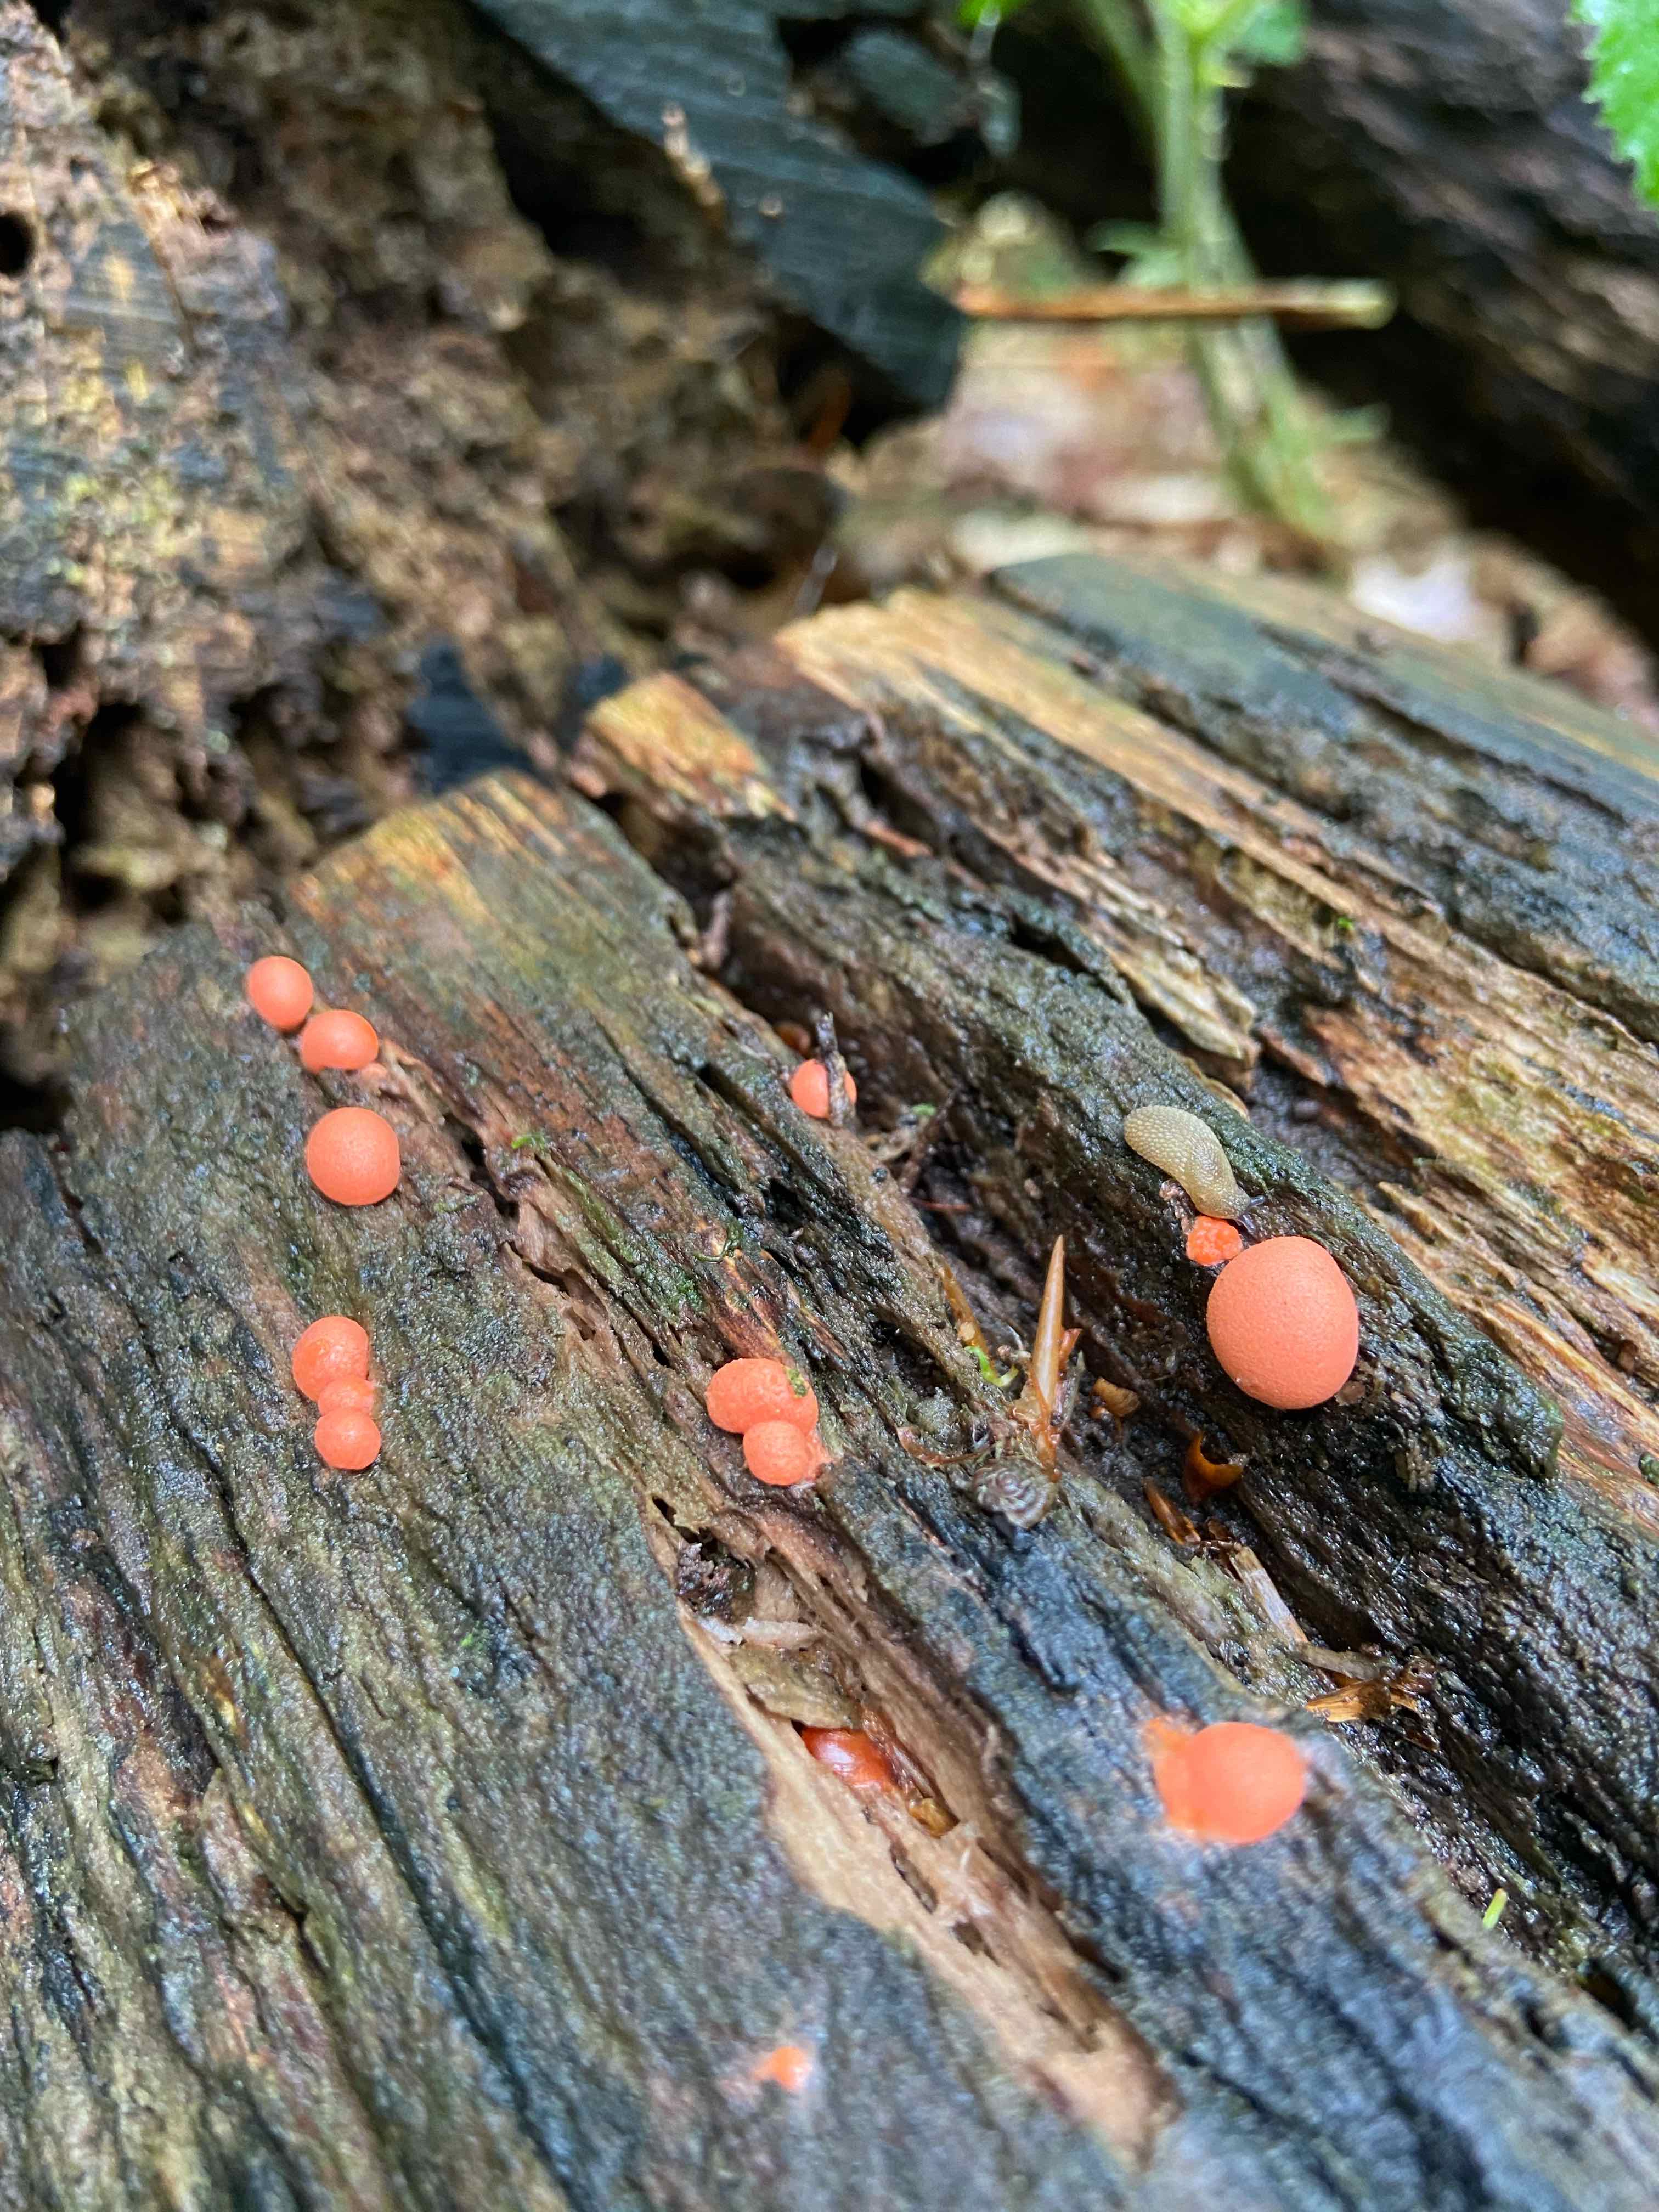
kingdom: Protozoa
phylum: Mycetozoa
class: Myxomycetes
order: Cribrariales
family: Tubiferaceae
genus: Lycogala
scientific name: Lycogala epidendrum
